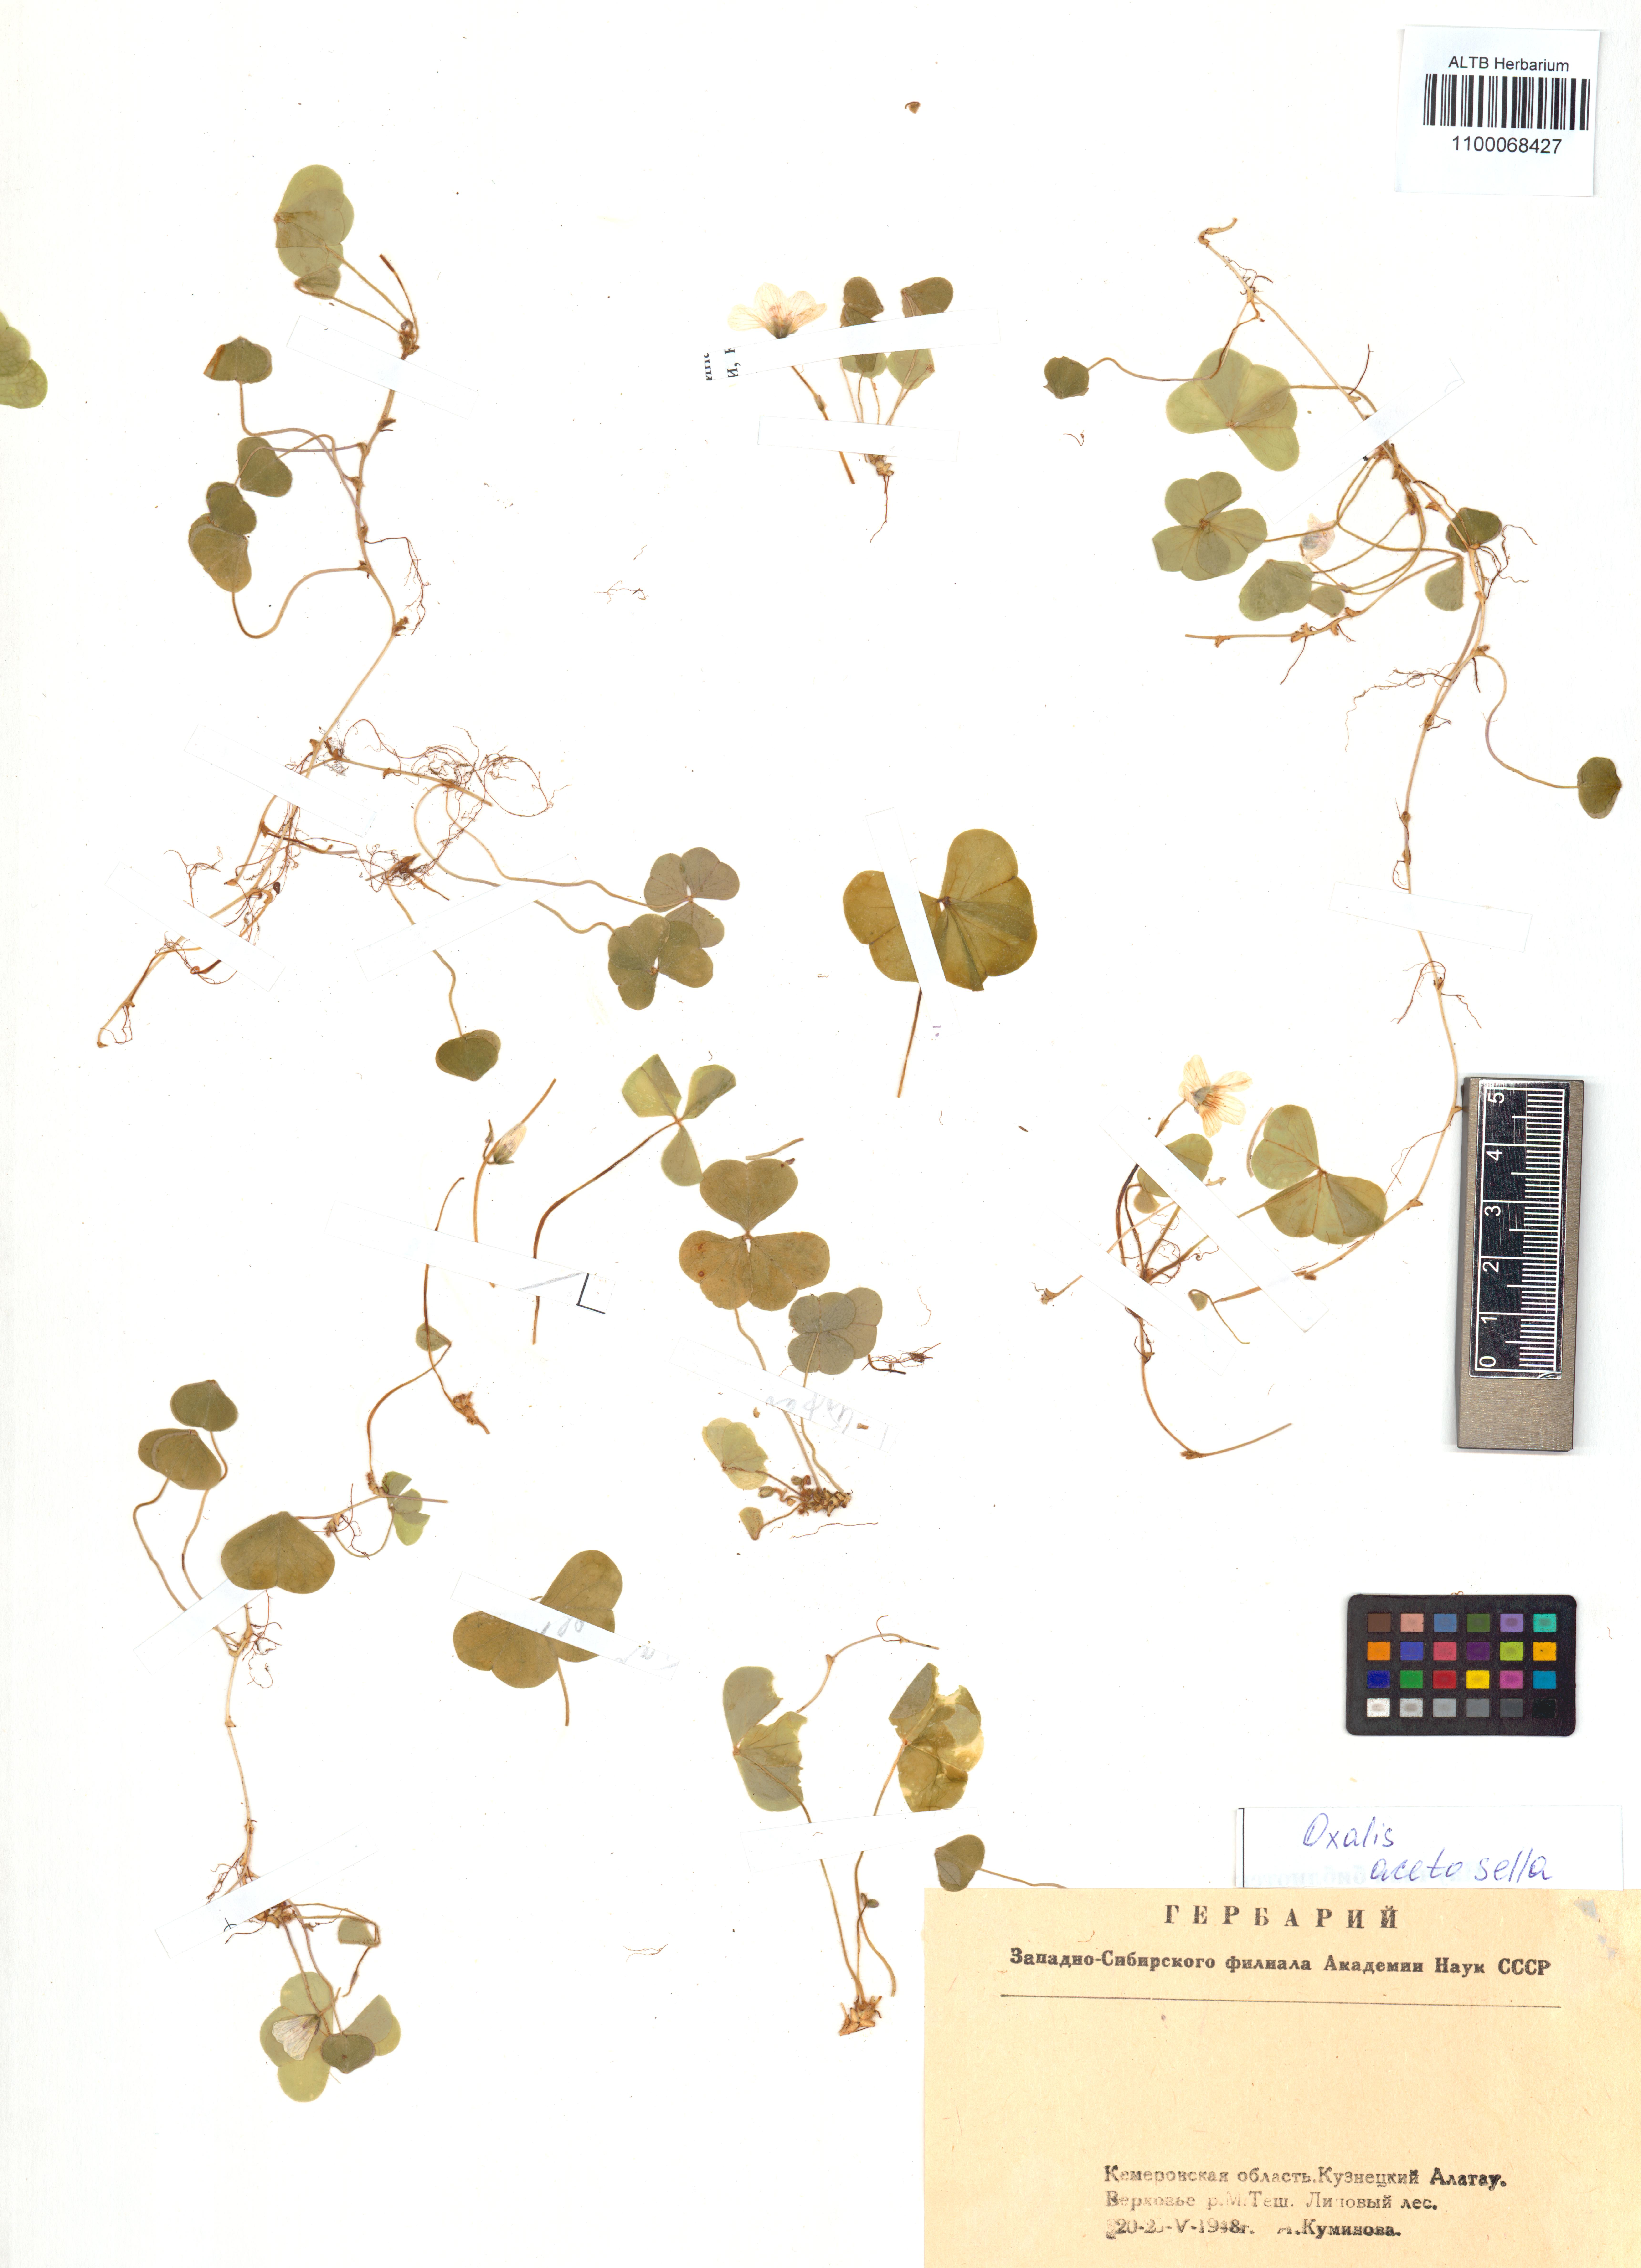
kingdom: Plantae
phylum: Tracheophyta
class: Magnoliopsida
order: Oxalidales
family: Oxalidaceae
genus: Oxalis
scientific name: Oxalis acetosella
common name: Wood-sorrel
